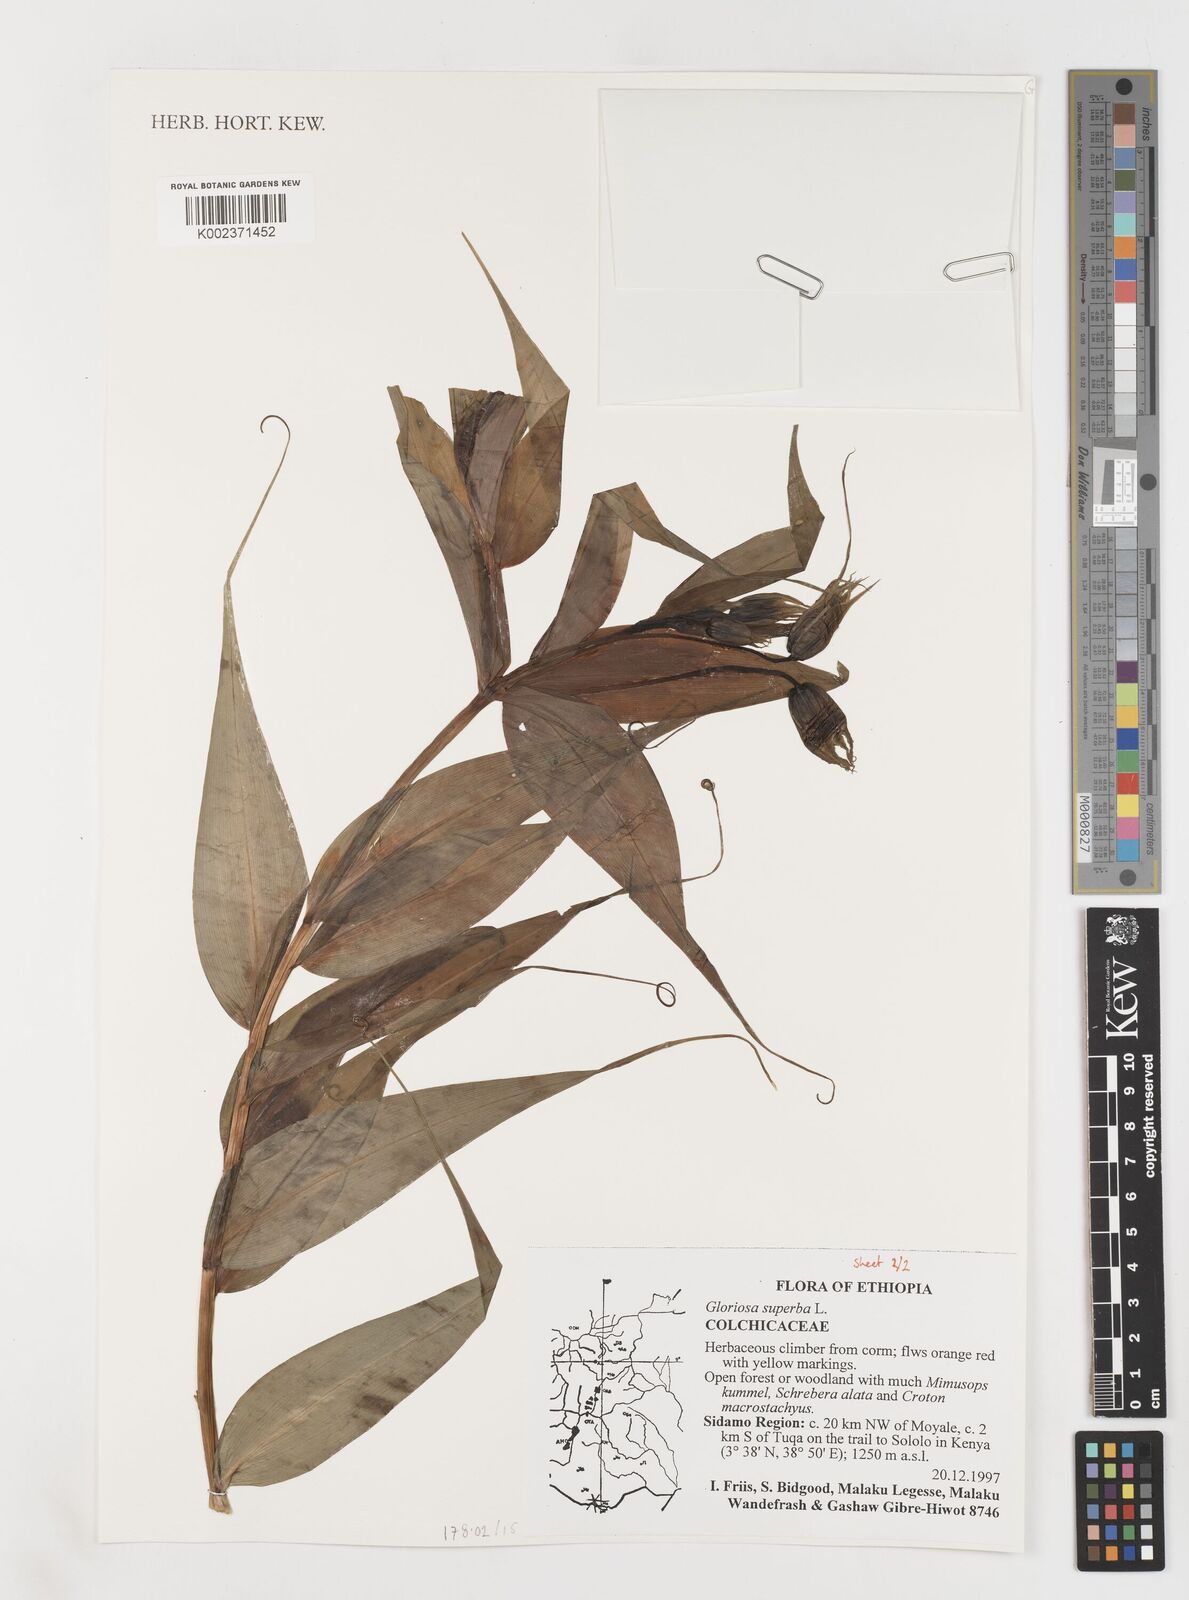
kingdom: Plantae
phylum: Tracheophyta
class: Liliopsida
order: Liliales
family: Colchicaceae
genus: Gloriosa
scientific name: Gloriosa simplex
